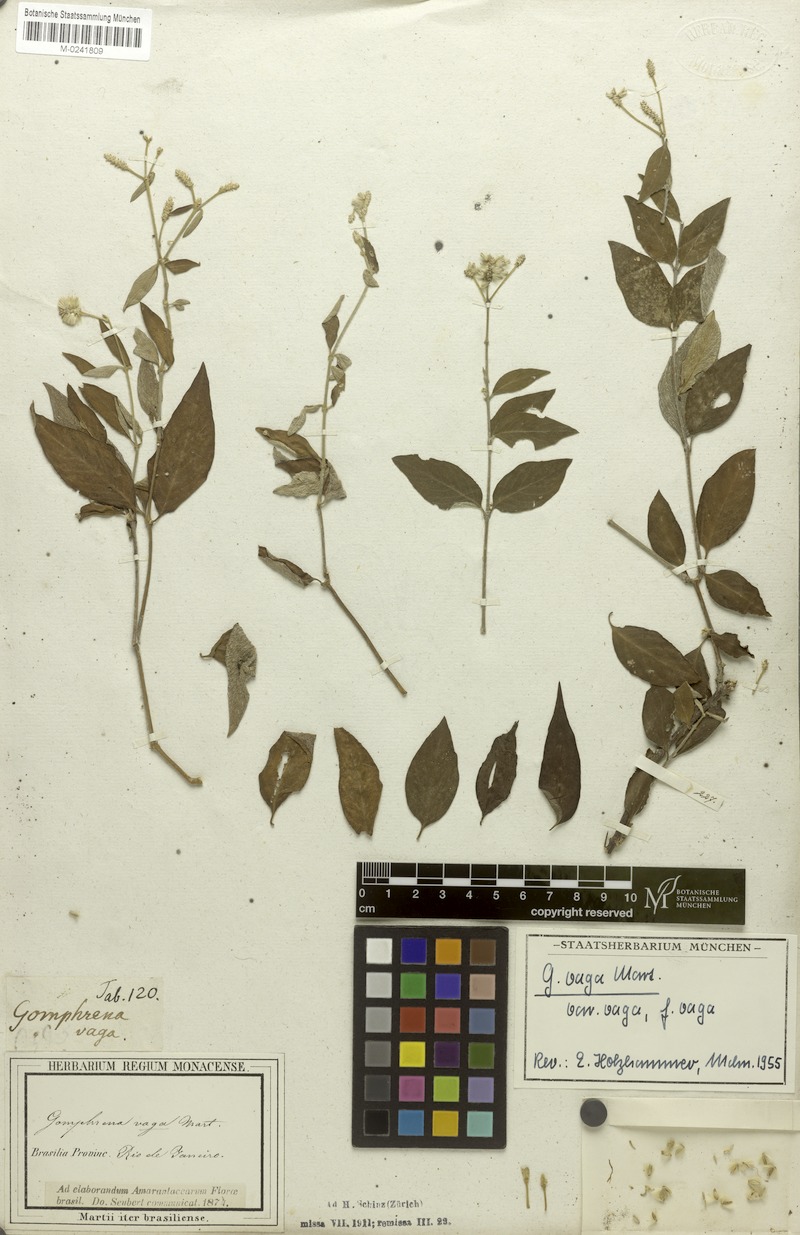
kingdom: Plantae
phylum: Tracheophyta
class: Magnoliopsida
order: Caryophyllales
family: Amaranthaceae
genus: Gomphrena
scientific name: Gomphrena vaga
